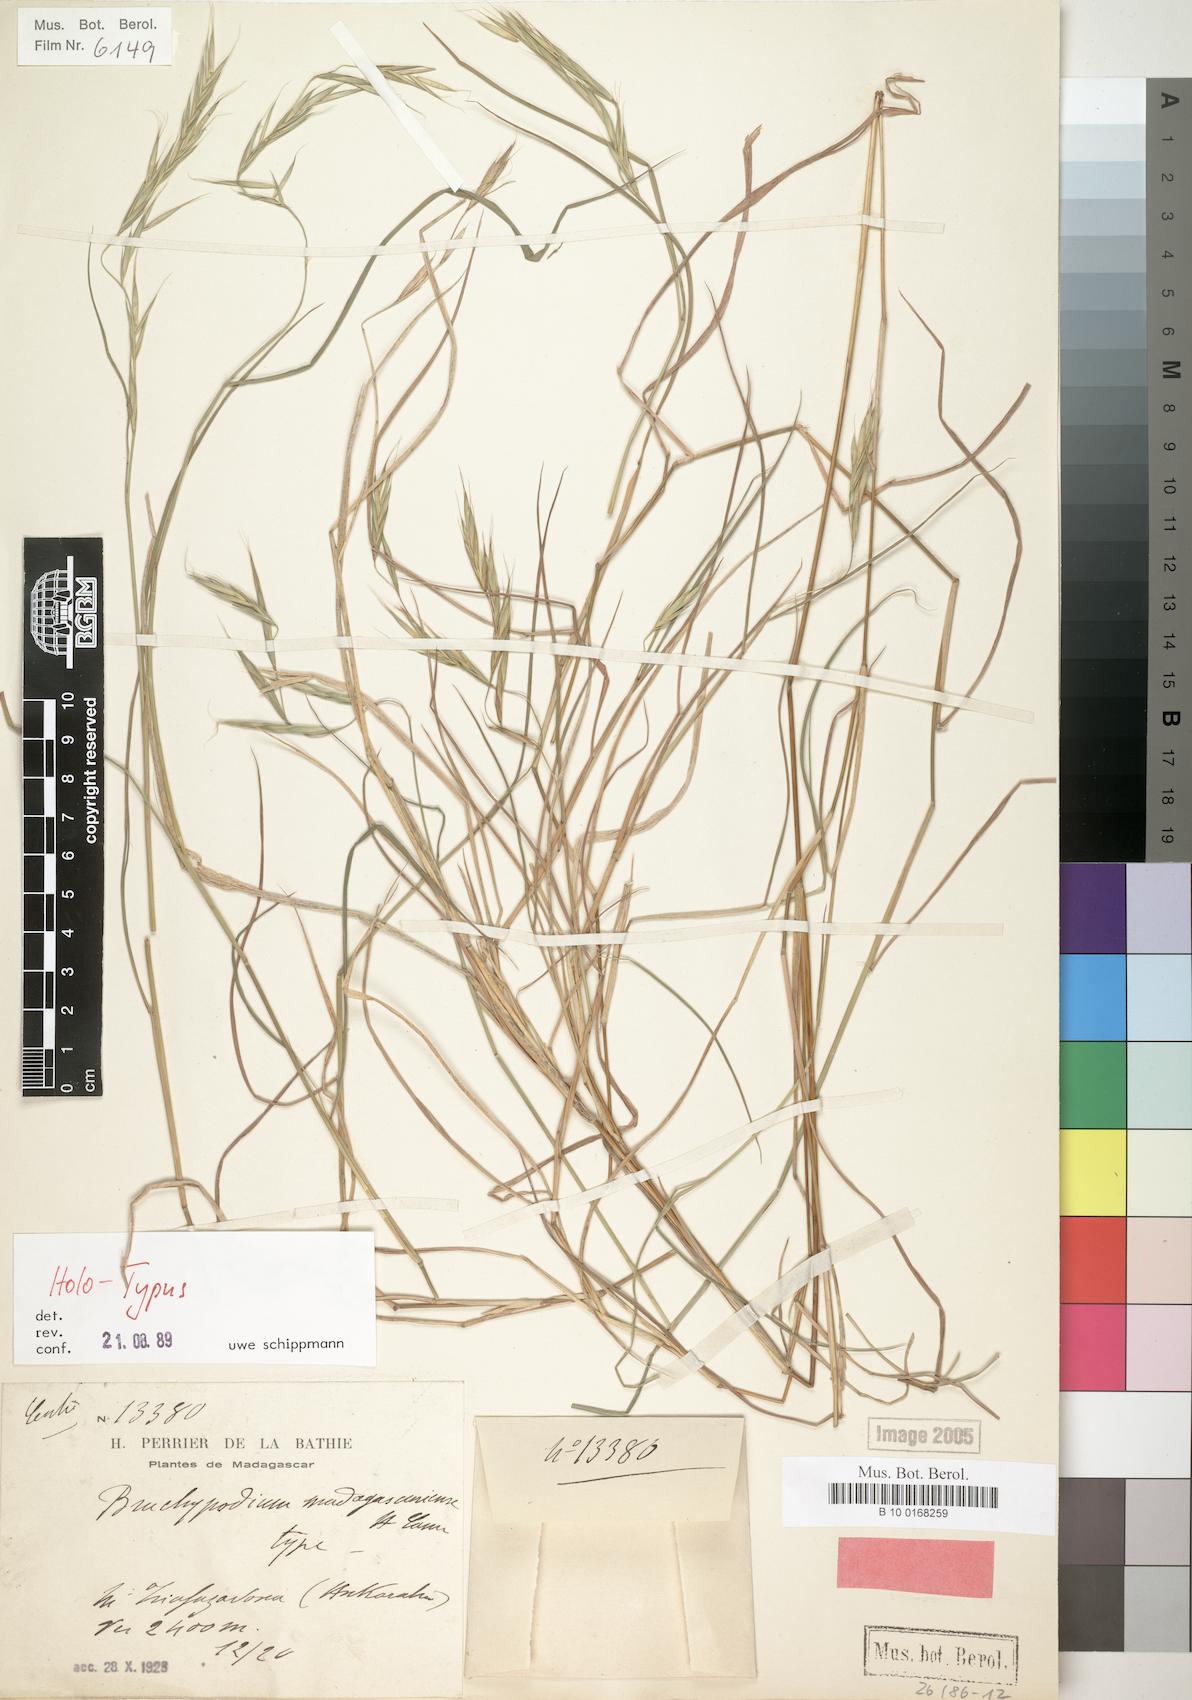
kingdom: Plantae
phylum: Tracheophyta
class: Liliopsida
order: Poales
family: Poaceae
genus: Brachypodium
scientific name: Brachypodium madagascariense
